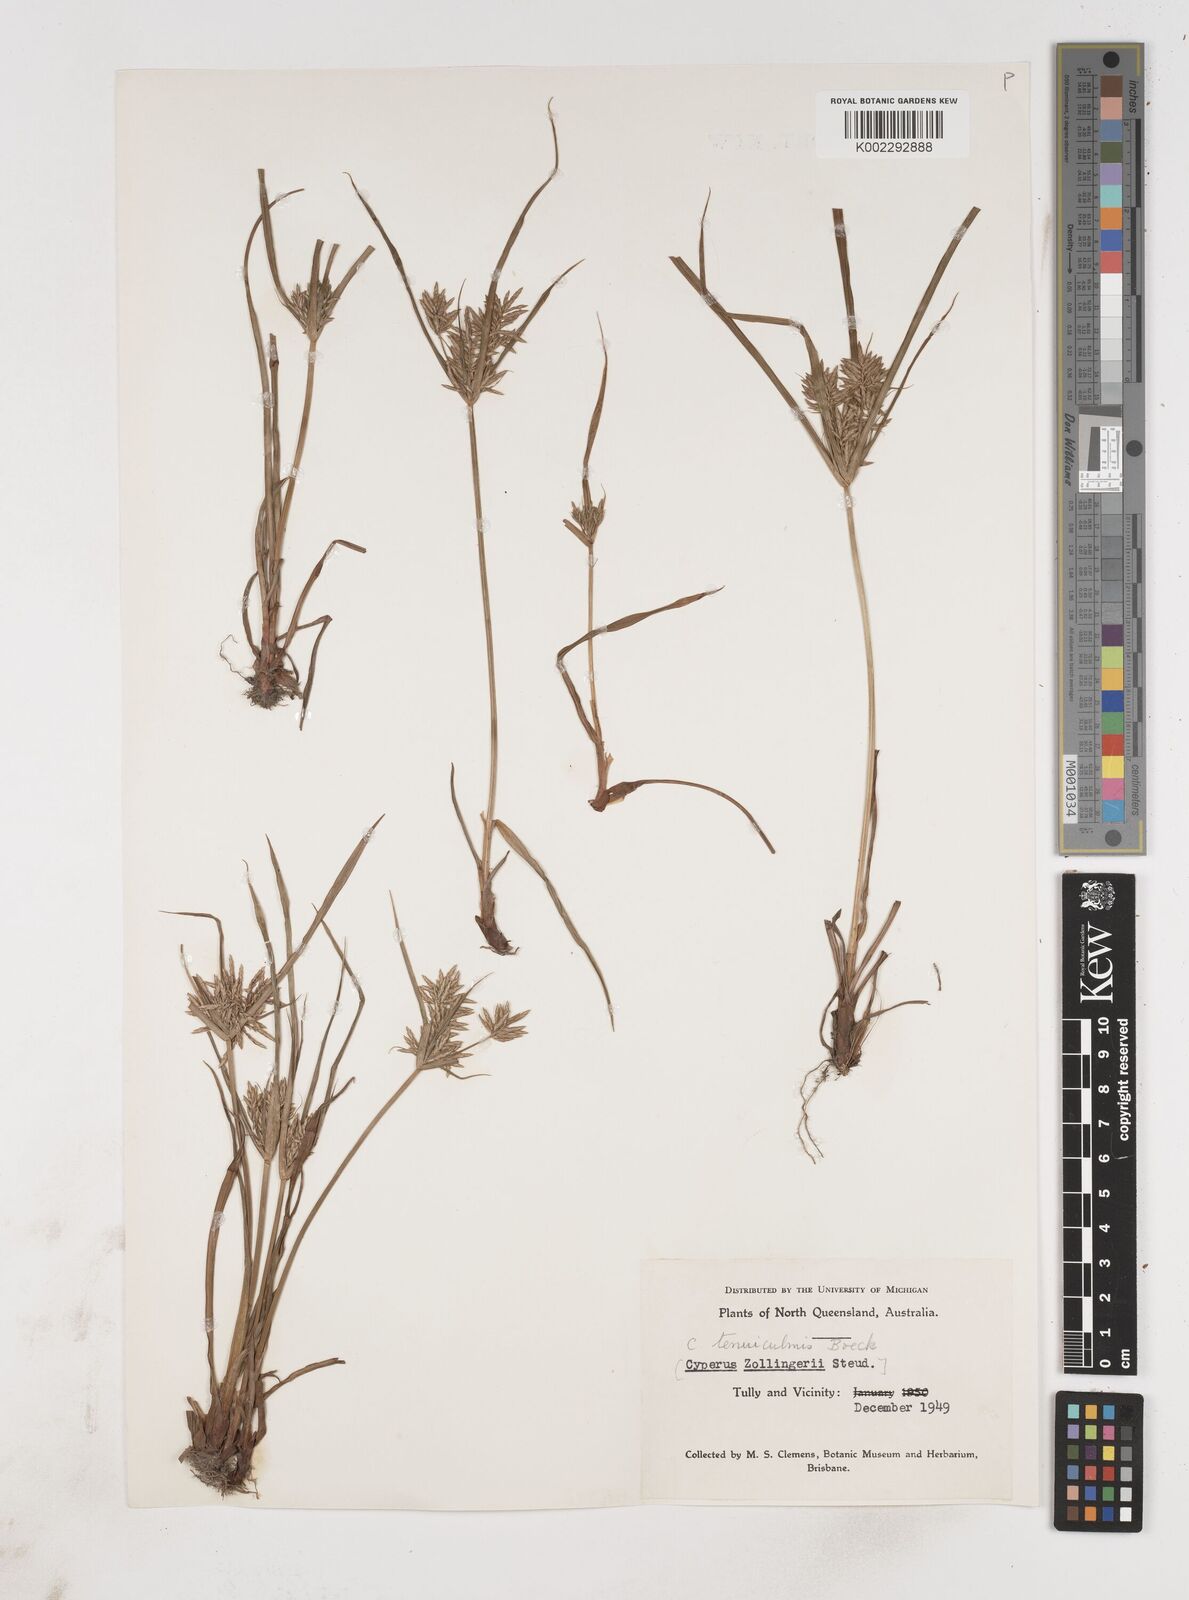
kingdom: Plantae
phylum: Tracheophyta
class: Liliopsida
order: Poales
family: Cyperaceae
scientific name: Cyperaceae
